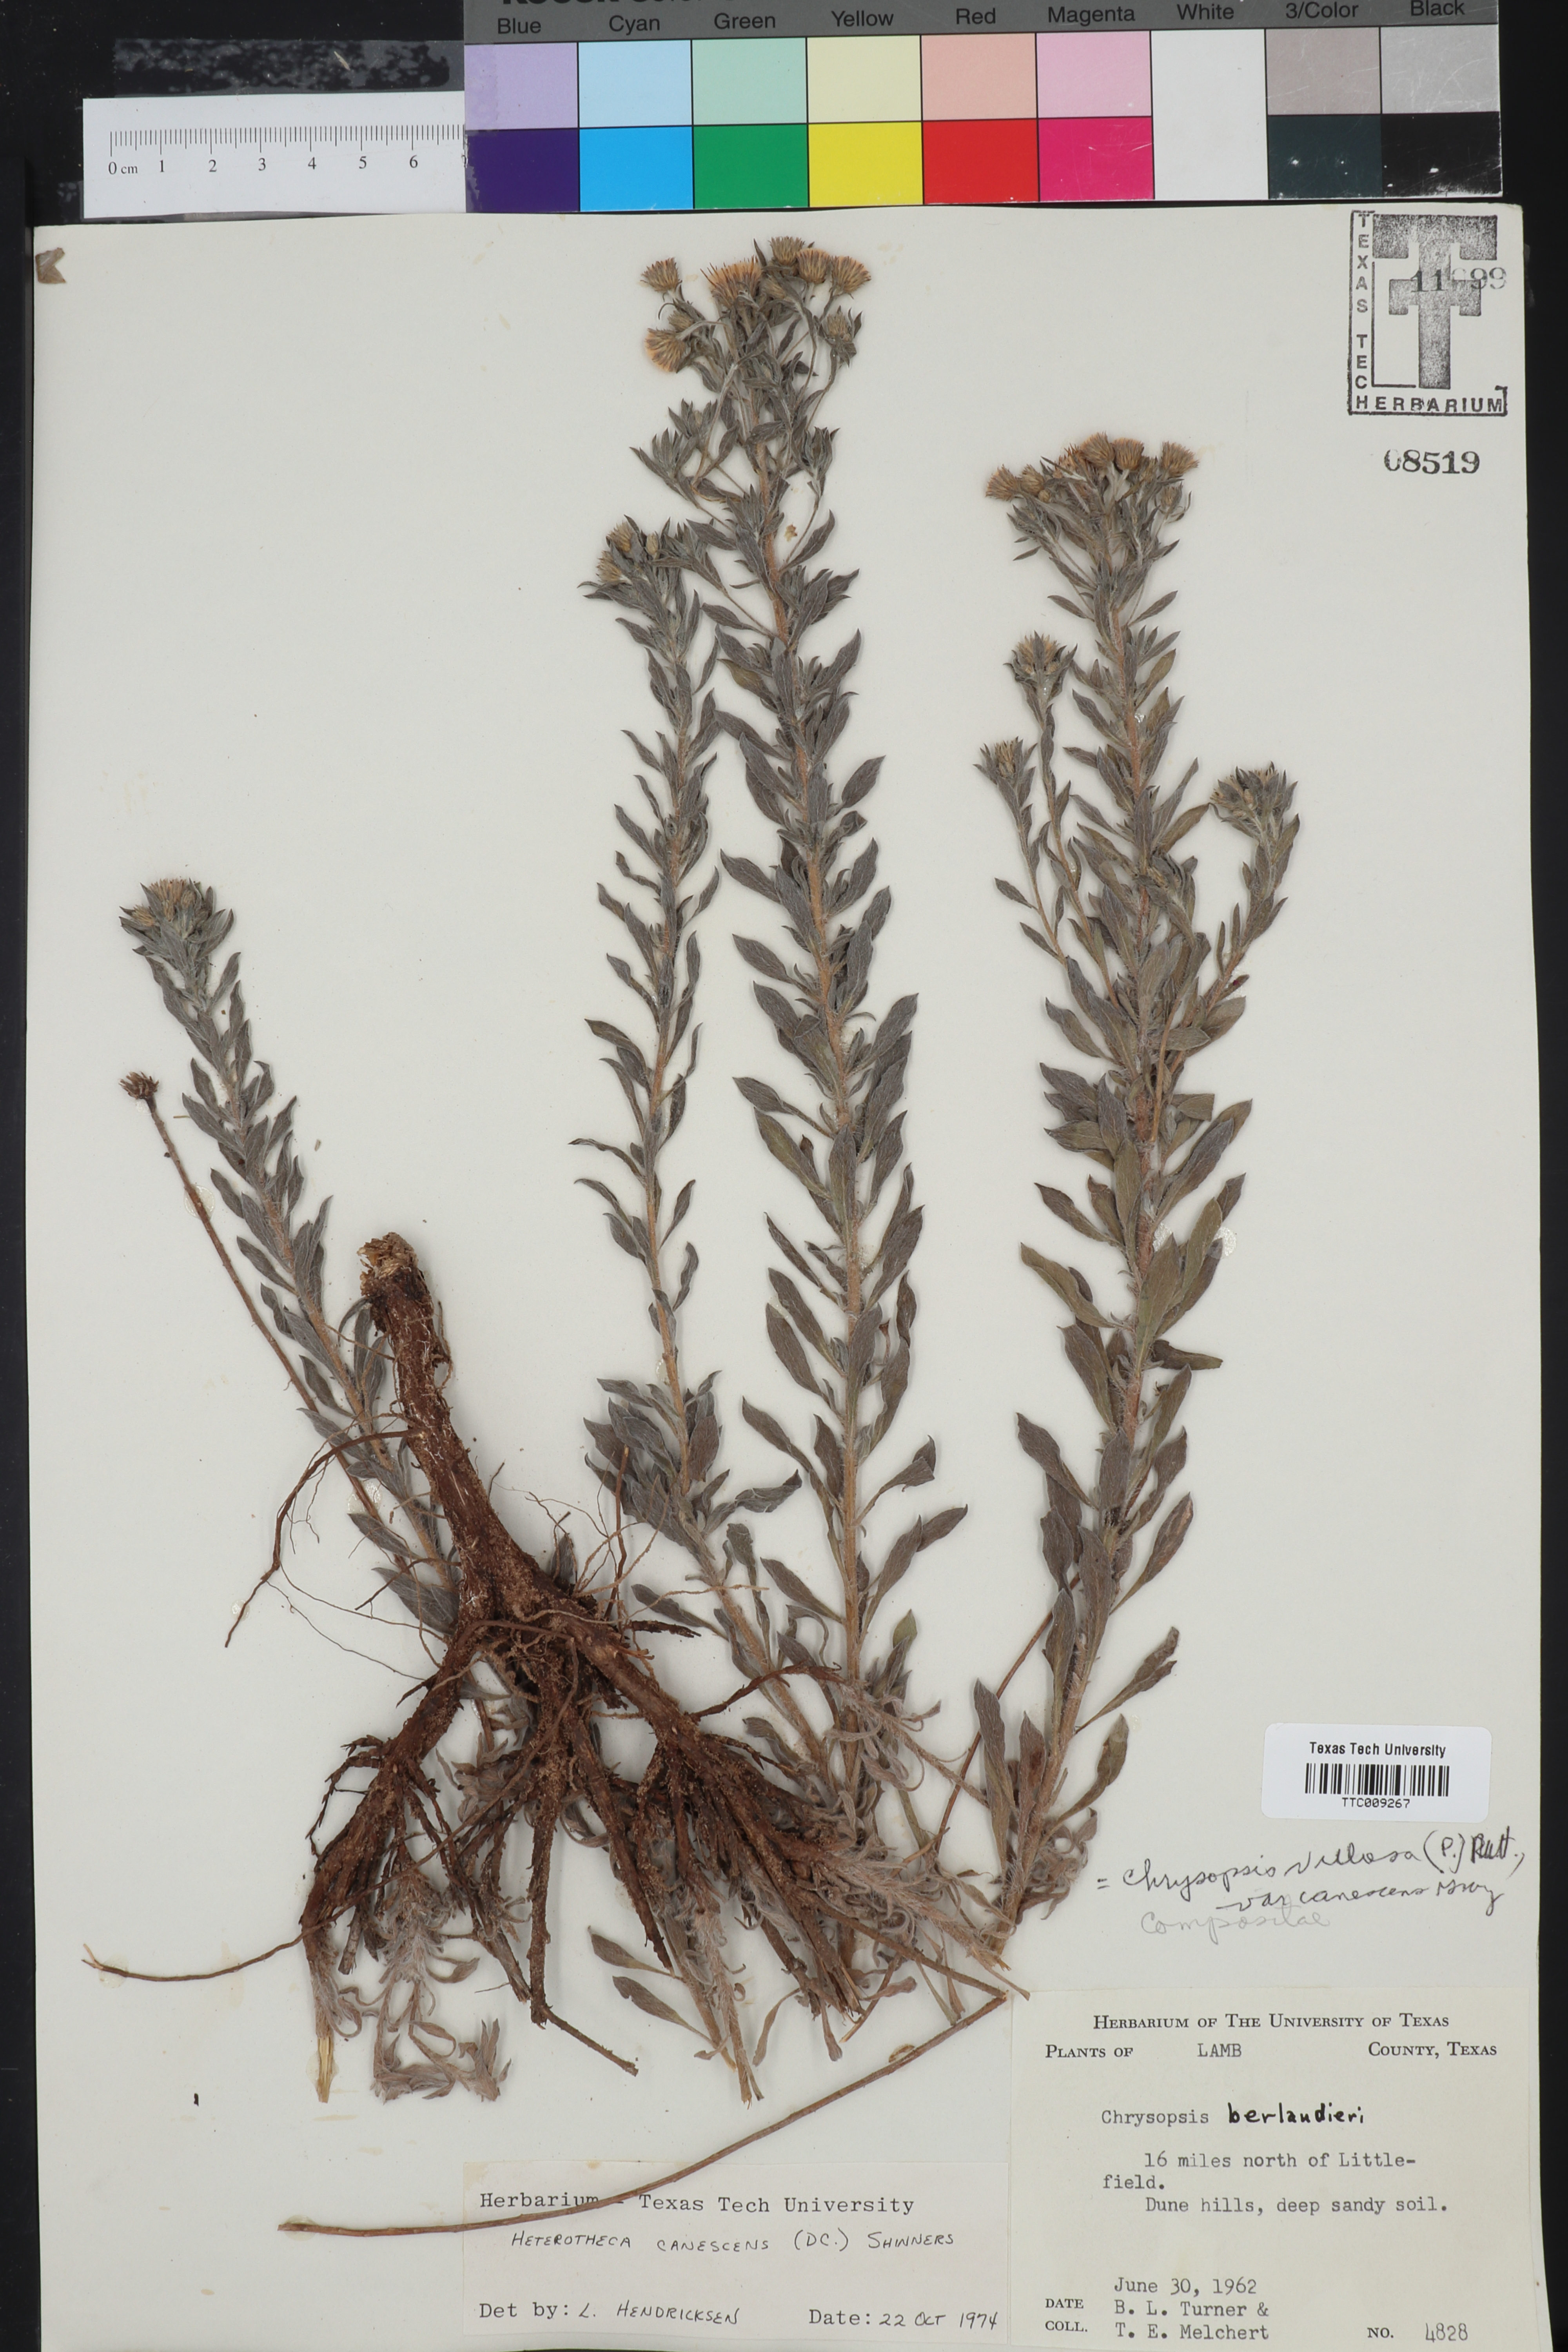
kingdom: Plantae
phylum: Tracheophyta
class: Magnoliopsida
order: Asterales
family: Asteraceae
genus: Heterotheca
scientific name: Heterotheca canescens
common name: Hoary golden-aster
